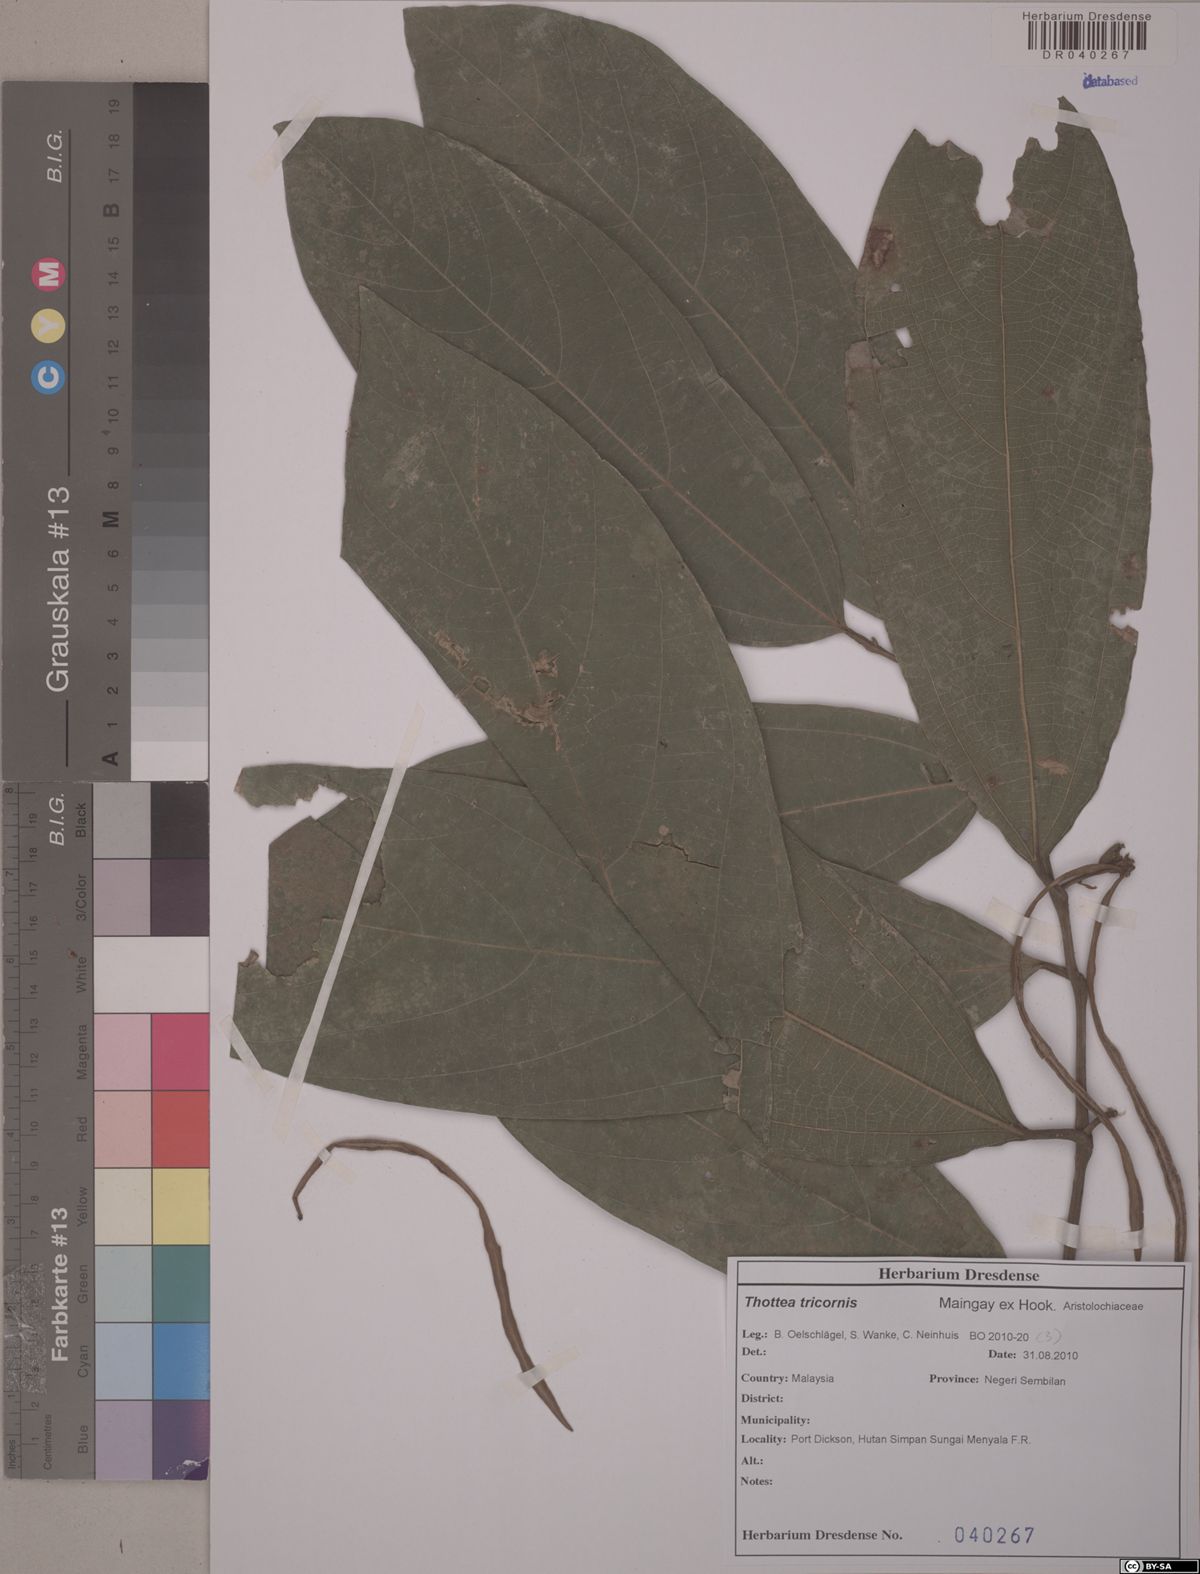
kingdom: Plantae
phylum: Tracheophyta
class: Magnoliopsida
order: Piperales
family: Aristolochiaceae
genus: Thottea
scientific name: Thottea tricornis
